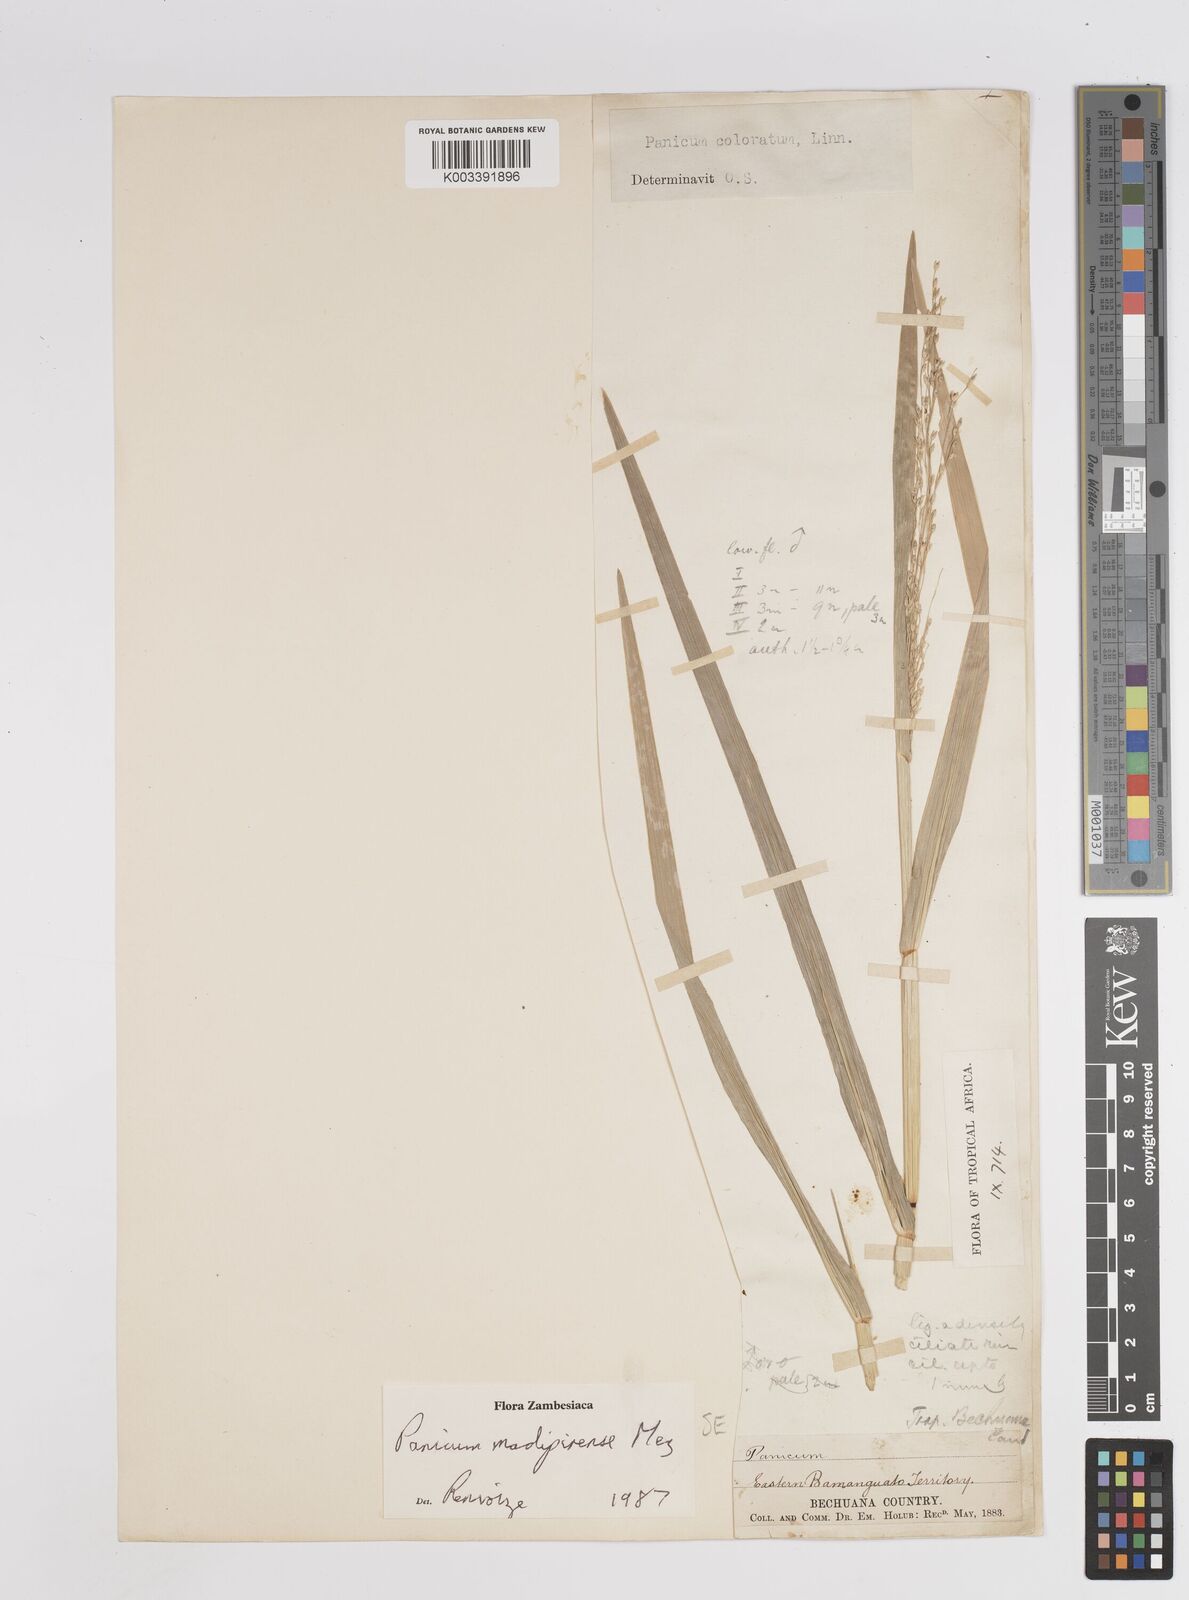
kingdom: Plantae
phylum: Tracheophyta
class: Liliopsida
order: Poales
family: Poaceae
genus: Panicum
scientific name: Panicum madipirense
